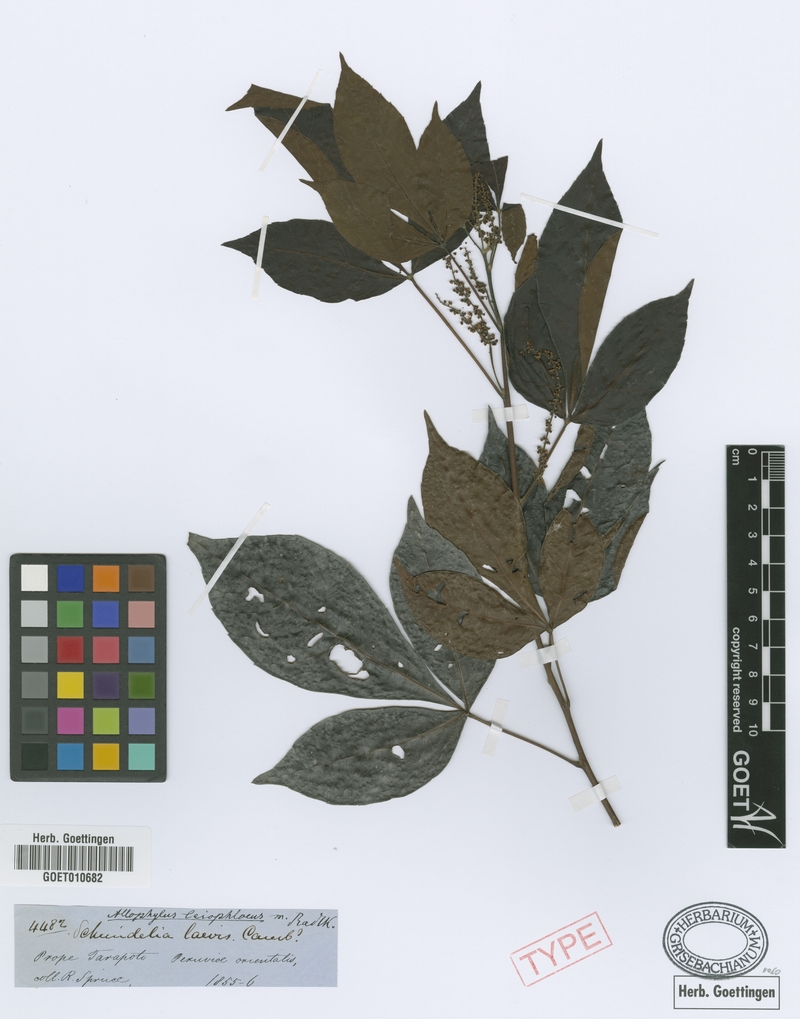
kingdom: Plantae
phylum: Tracheophyta
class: Magnoliopsida
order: Sapindales
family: Sapindaceae
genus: Allophylus
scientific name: Allophylus floribundus
